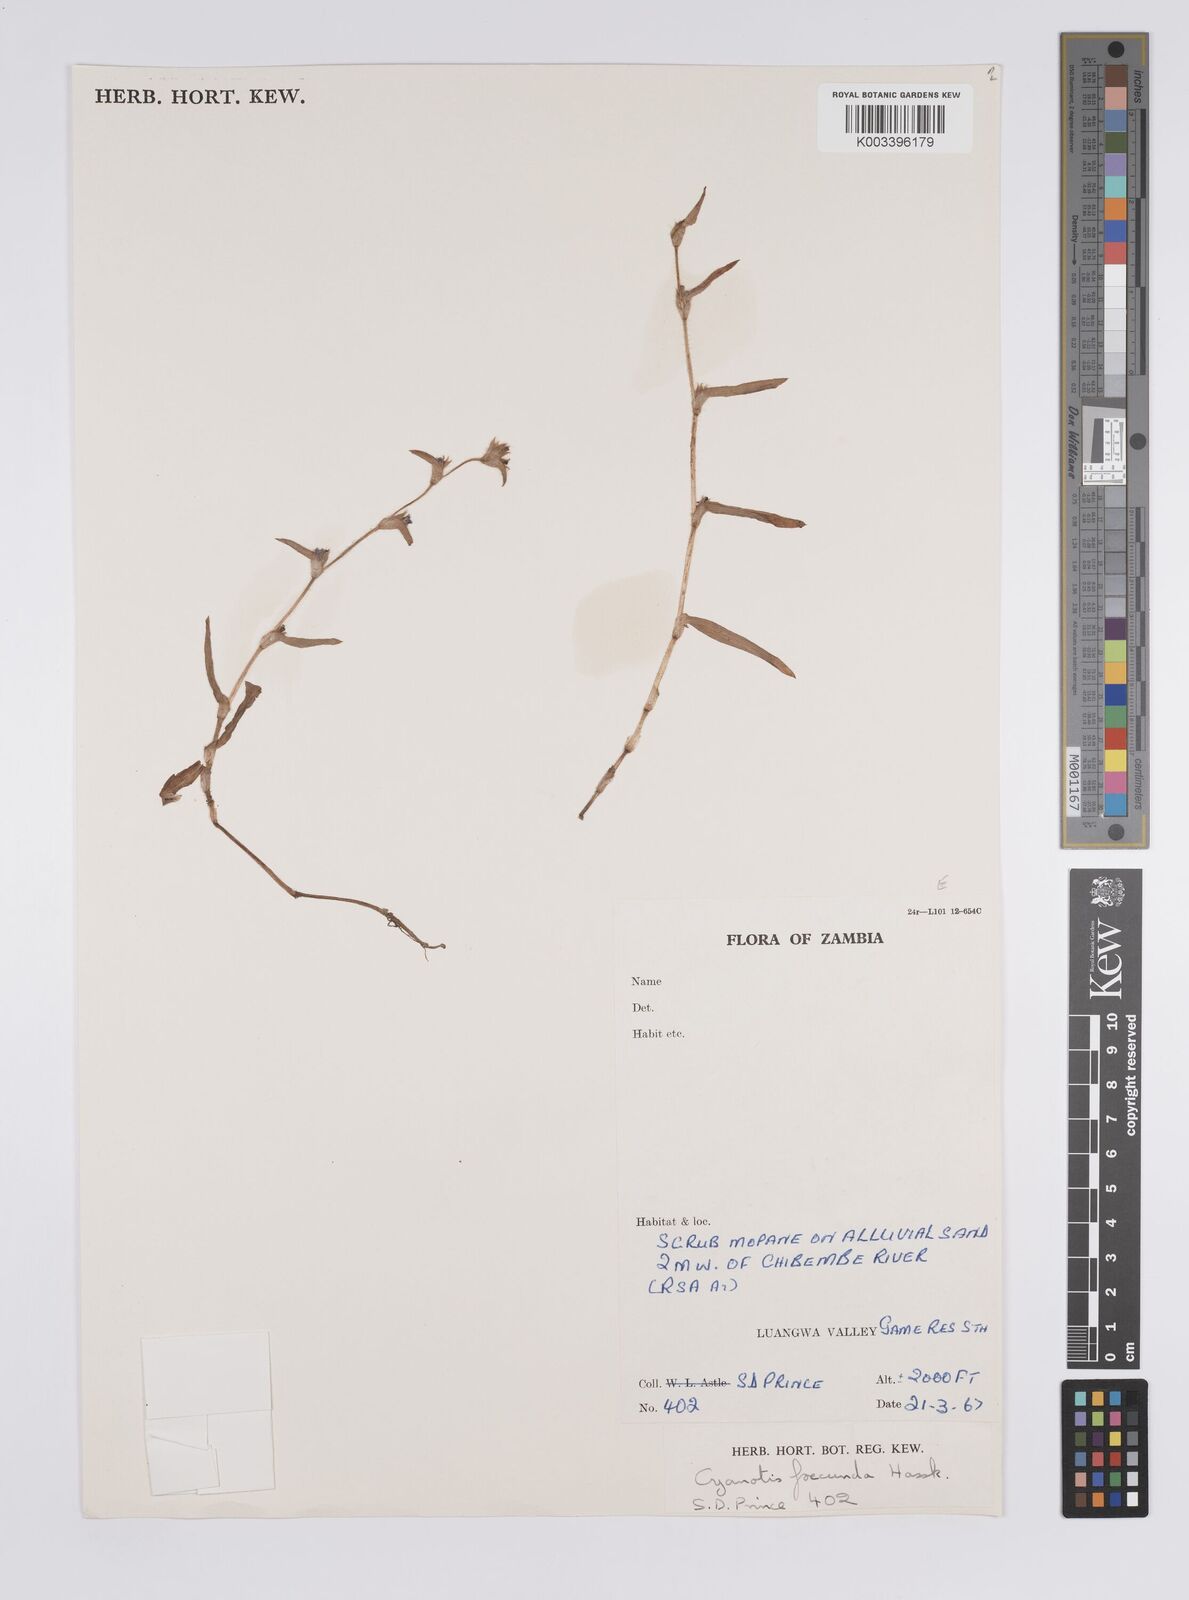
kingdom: Plantae
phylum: Tracheophyta
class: Liliopsida
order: Commelinales
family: Commelinaceae
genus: Cyanotis
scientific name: Cyanotis foecunda
